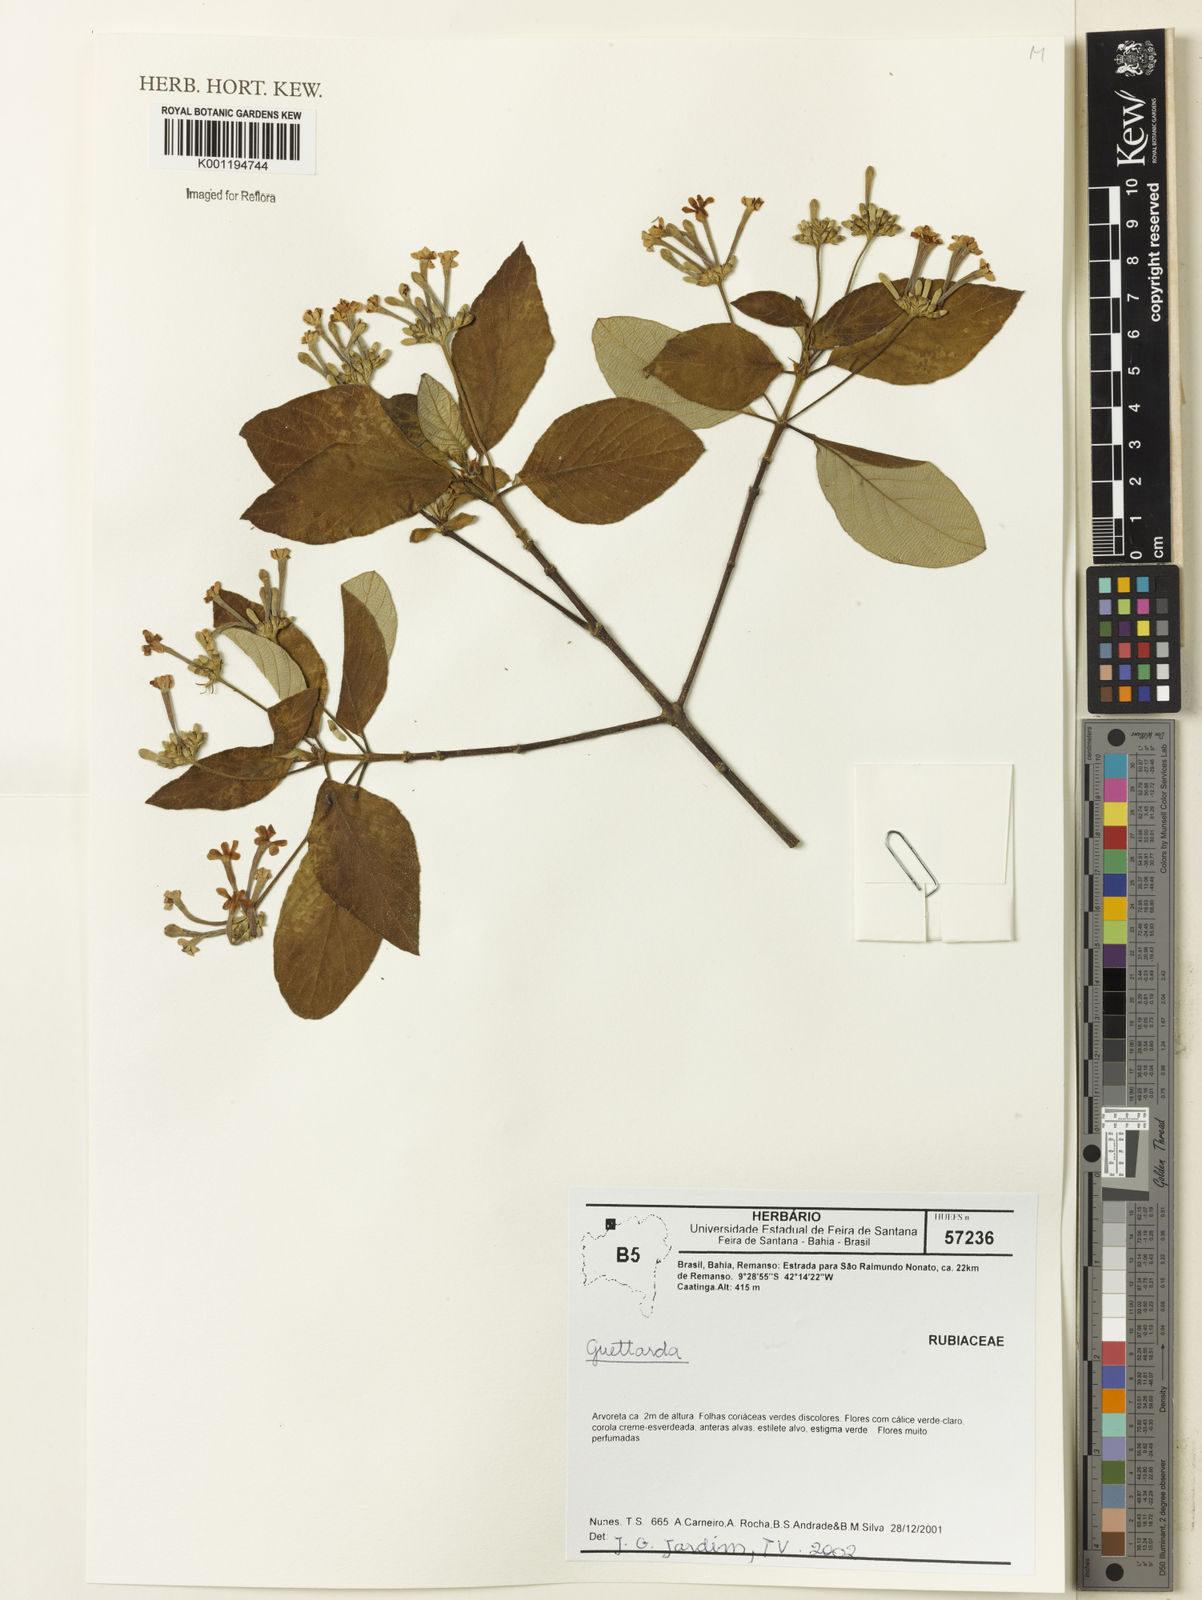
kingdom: Plantae
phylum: Tracheophyta
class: Magnoliopsida
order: Gentianales
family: Rubiaceae
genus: Guettarda
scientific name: Guettarda
